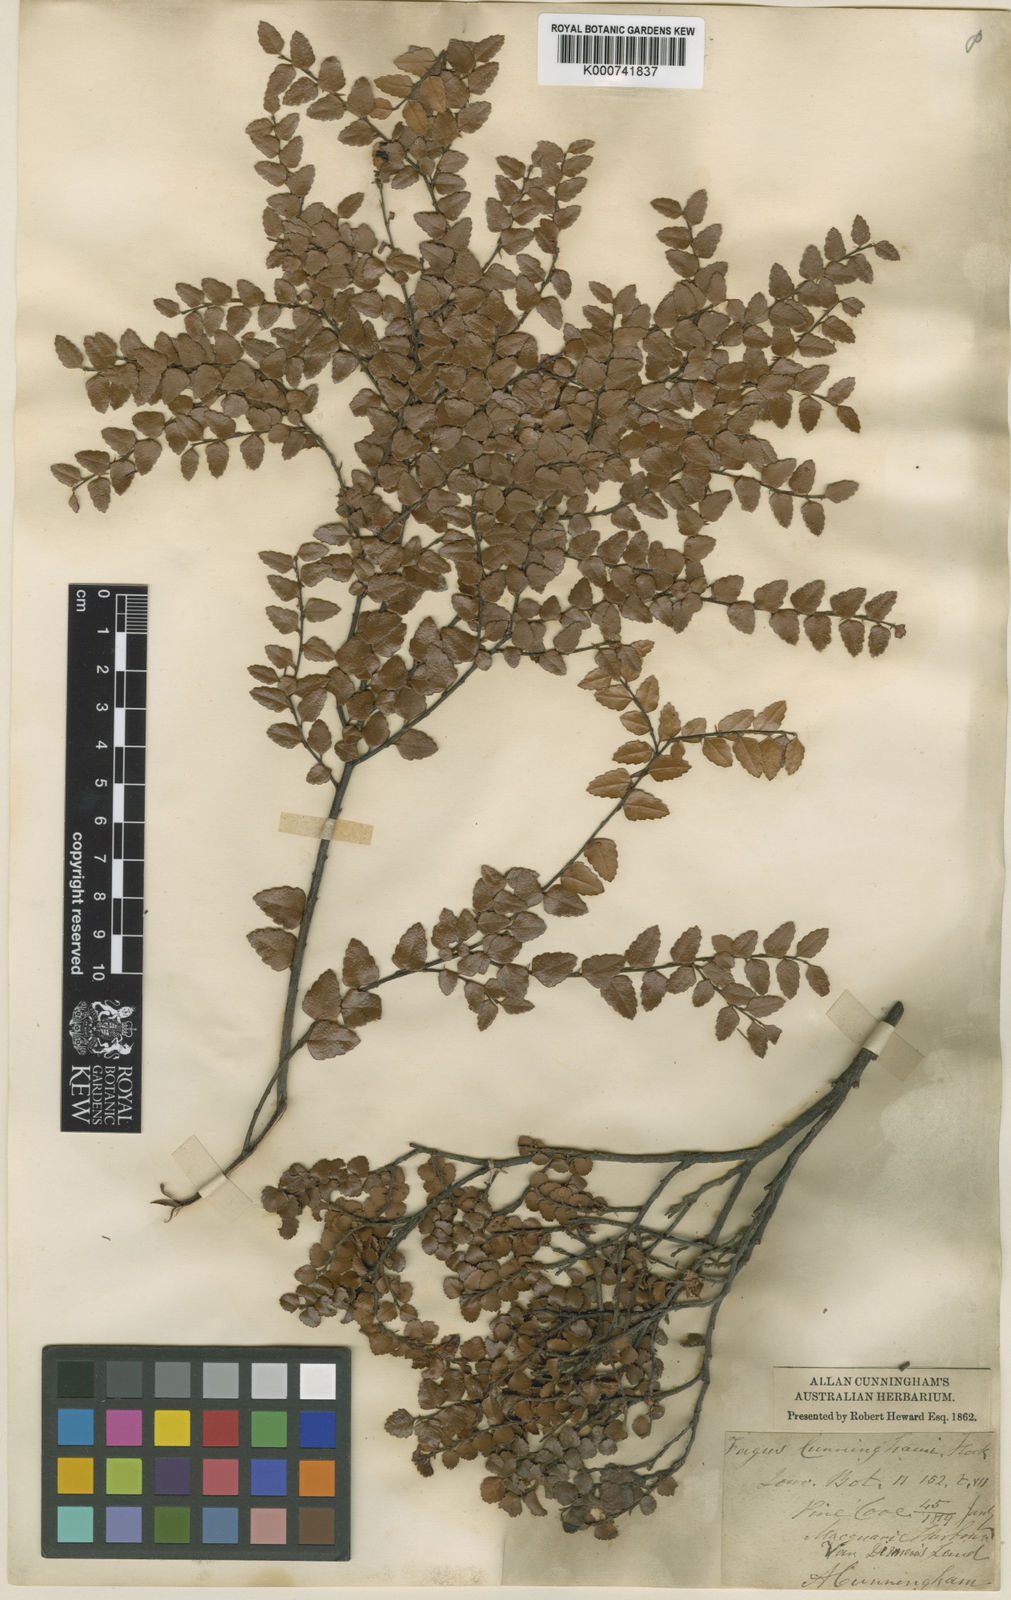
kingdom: Plantae
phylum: Tracheophyta
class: Magnoliopsida
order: Fagales
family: Nothofagaceae
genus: Nothofagus
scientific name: Nothofagus cunninghamii
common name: Myrtle beech
